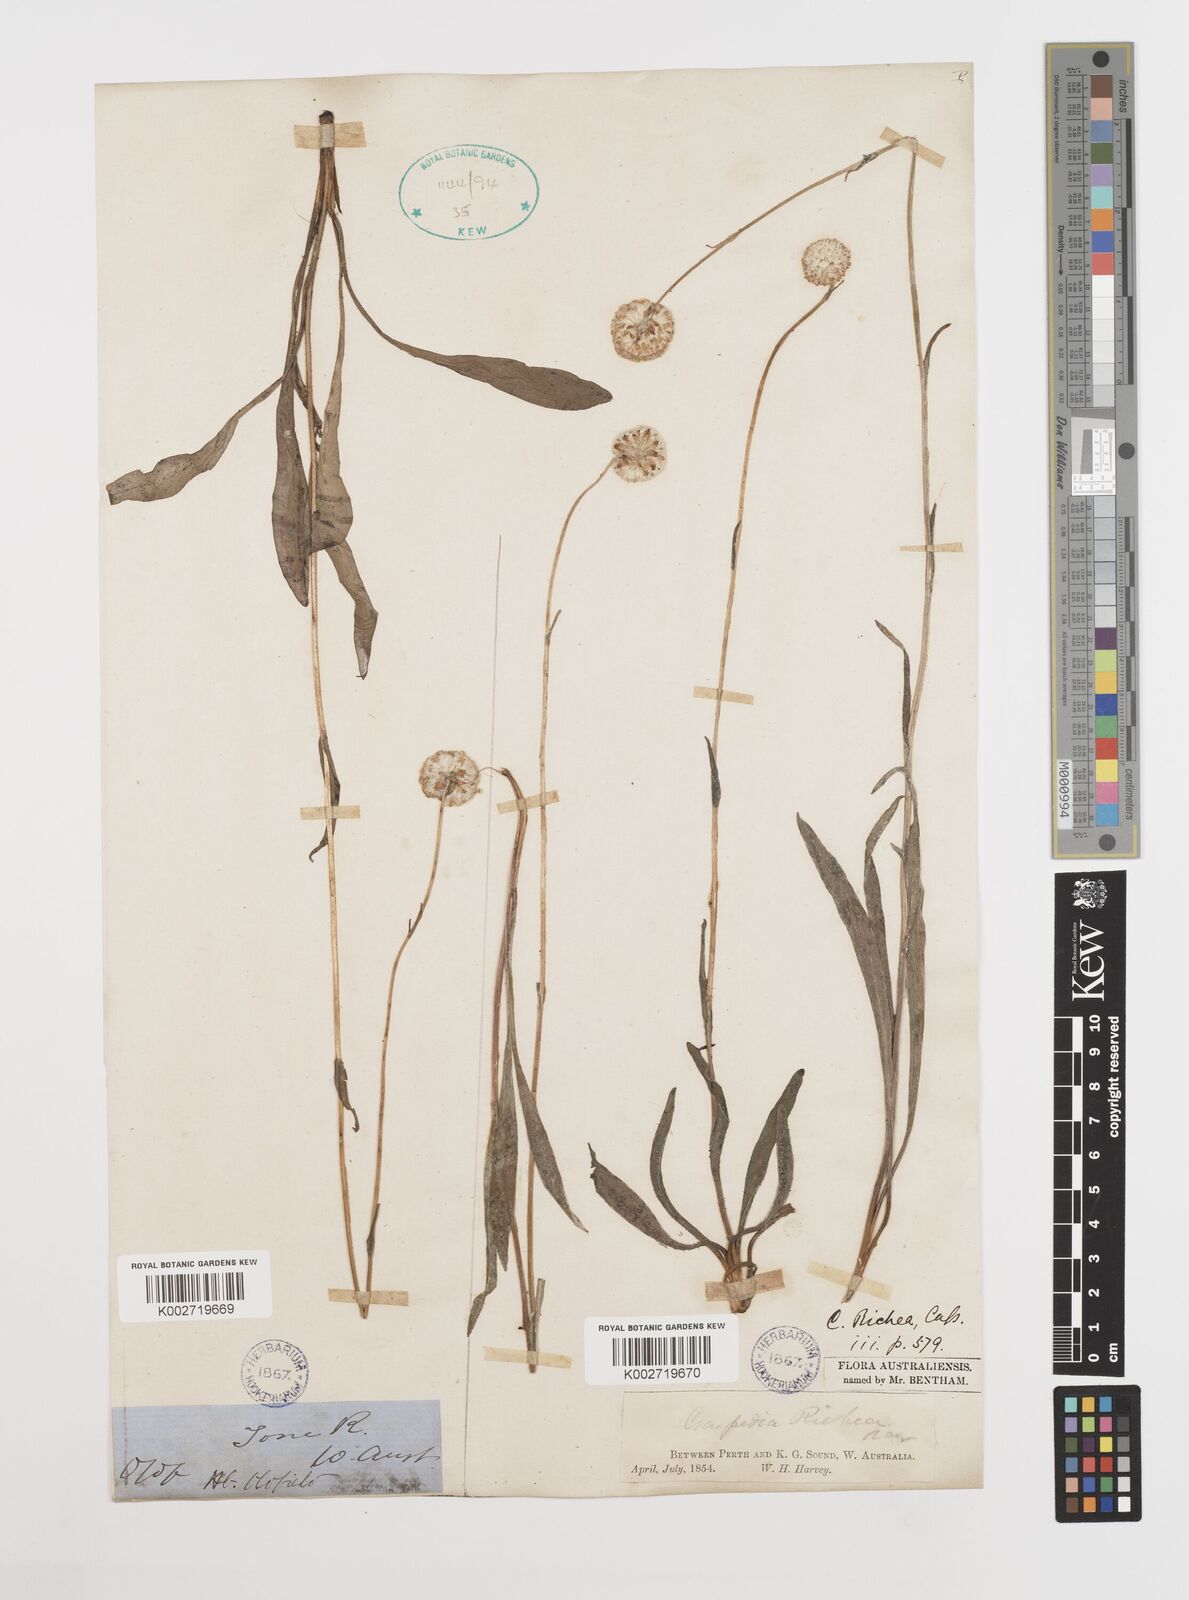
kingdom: Plantae
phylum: Tracheophyta
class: Magnoliopsida
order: Asterales
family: Asteraceae
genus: Craspedia
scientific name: Craspedia glauca
